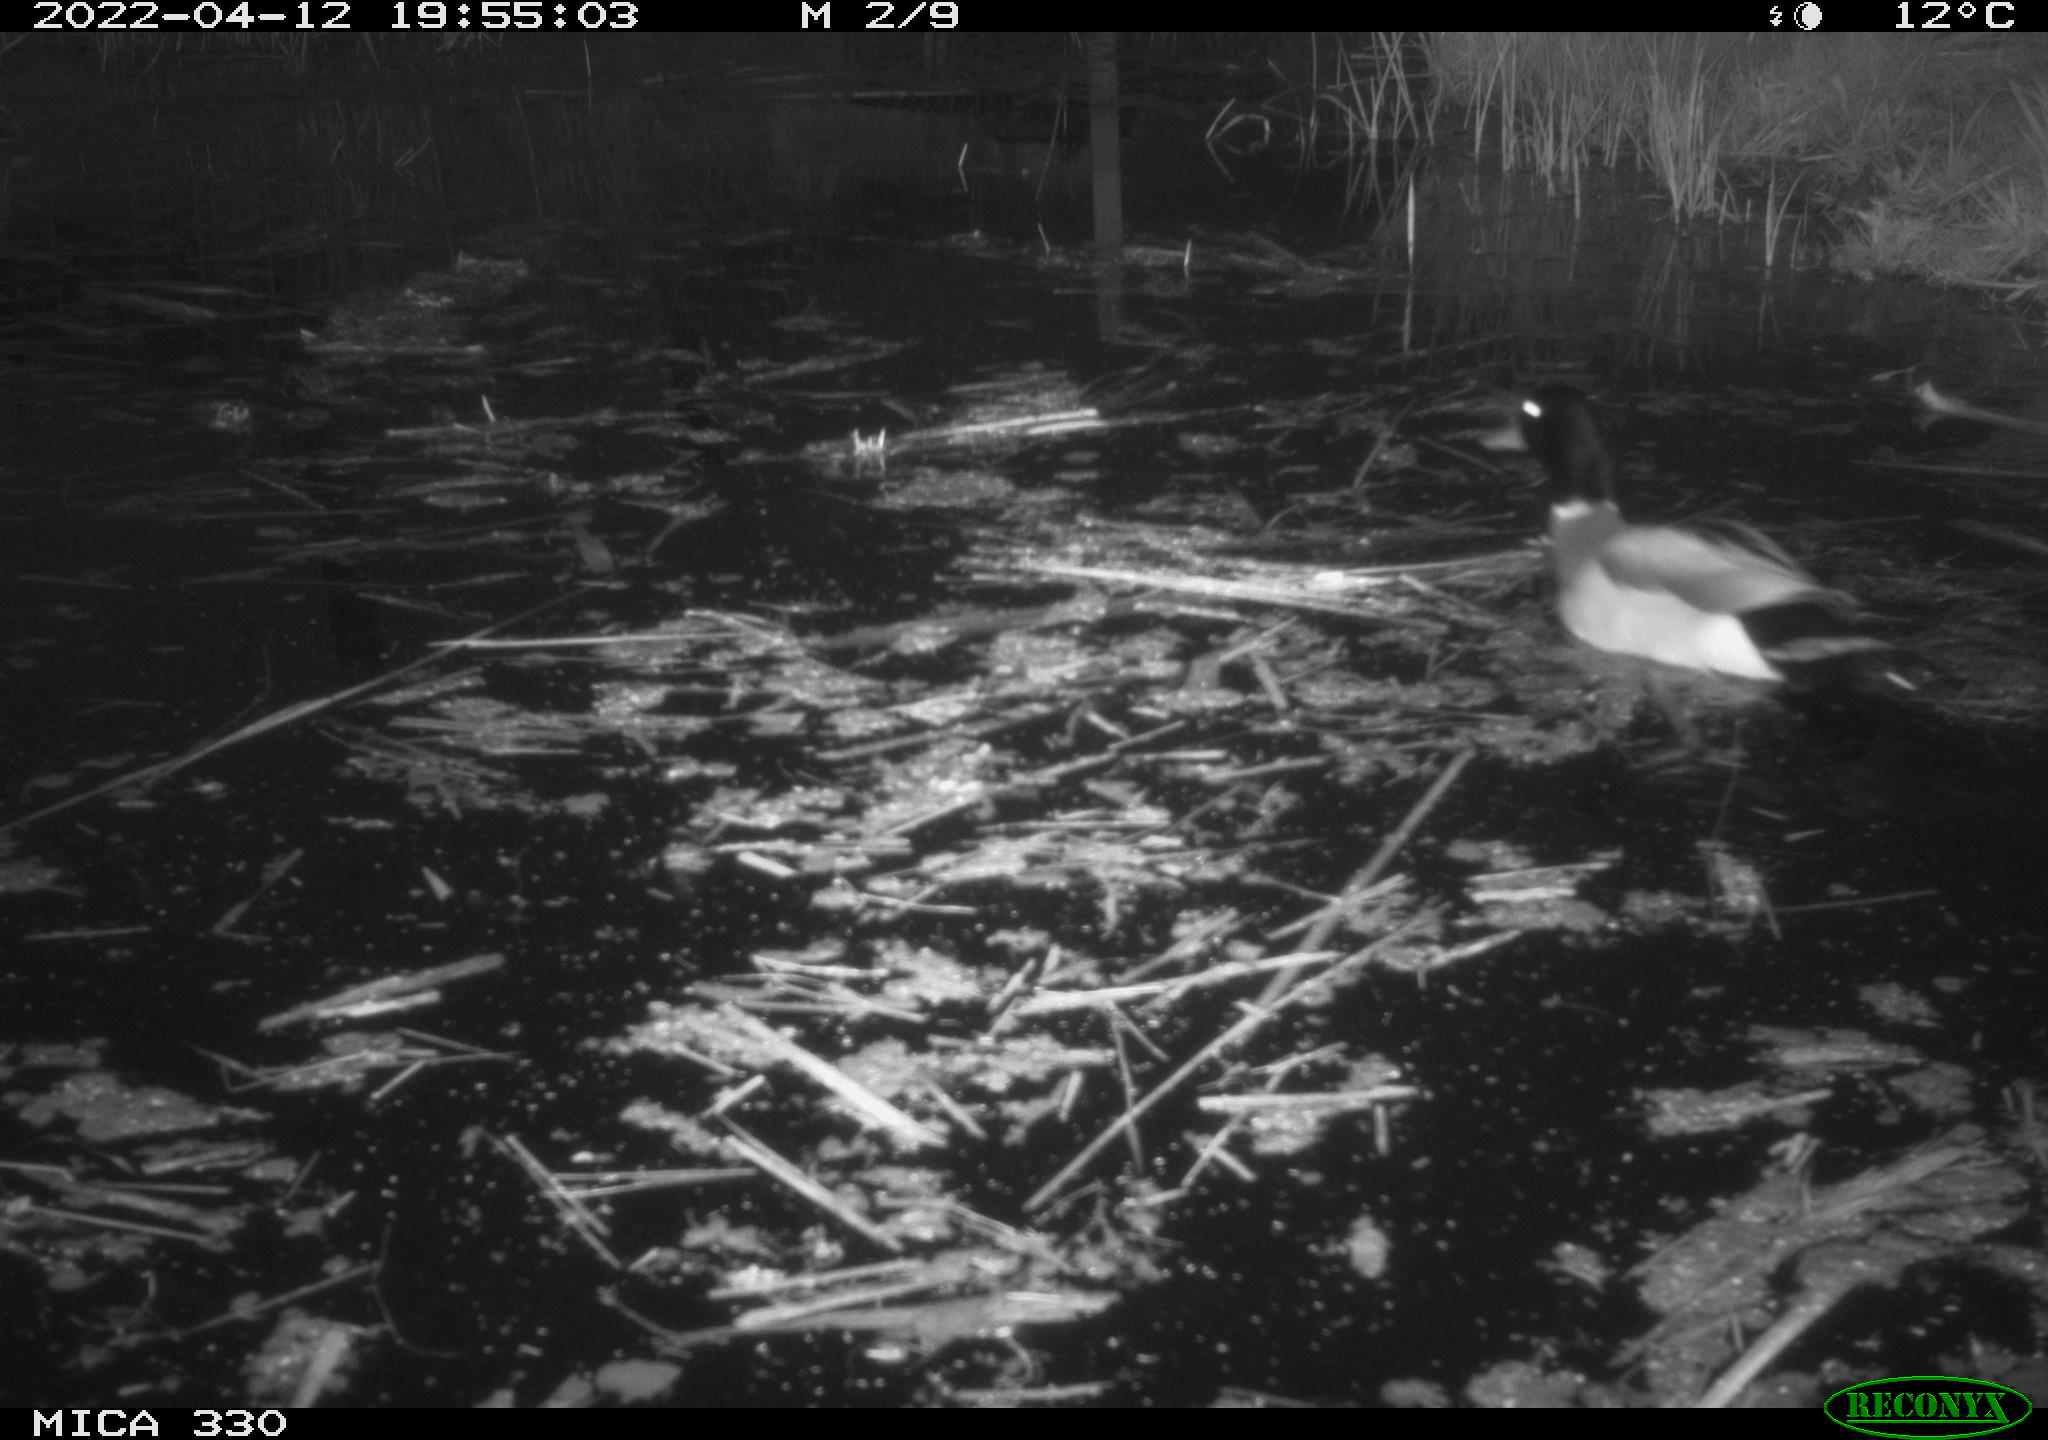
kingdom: Animalia
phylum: Chordata
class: Aves
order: Anseriformes
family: Anatidae
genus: Anas
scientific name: Anas platyrhynchos
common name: Mallard
